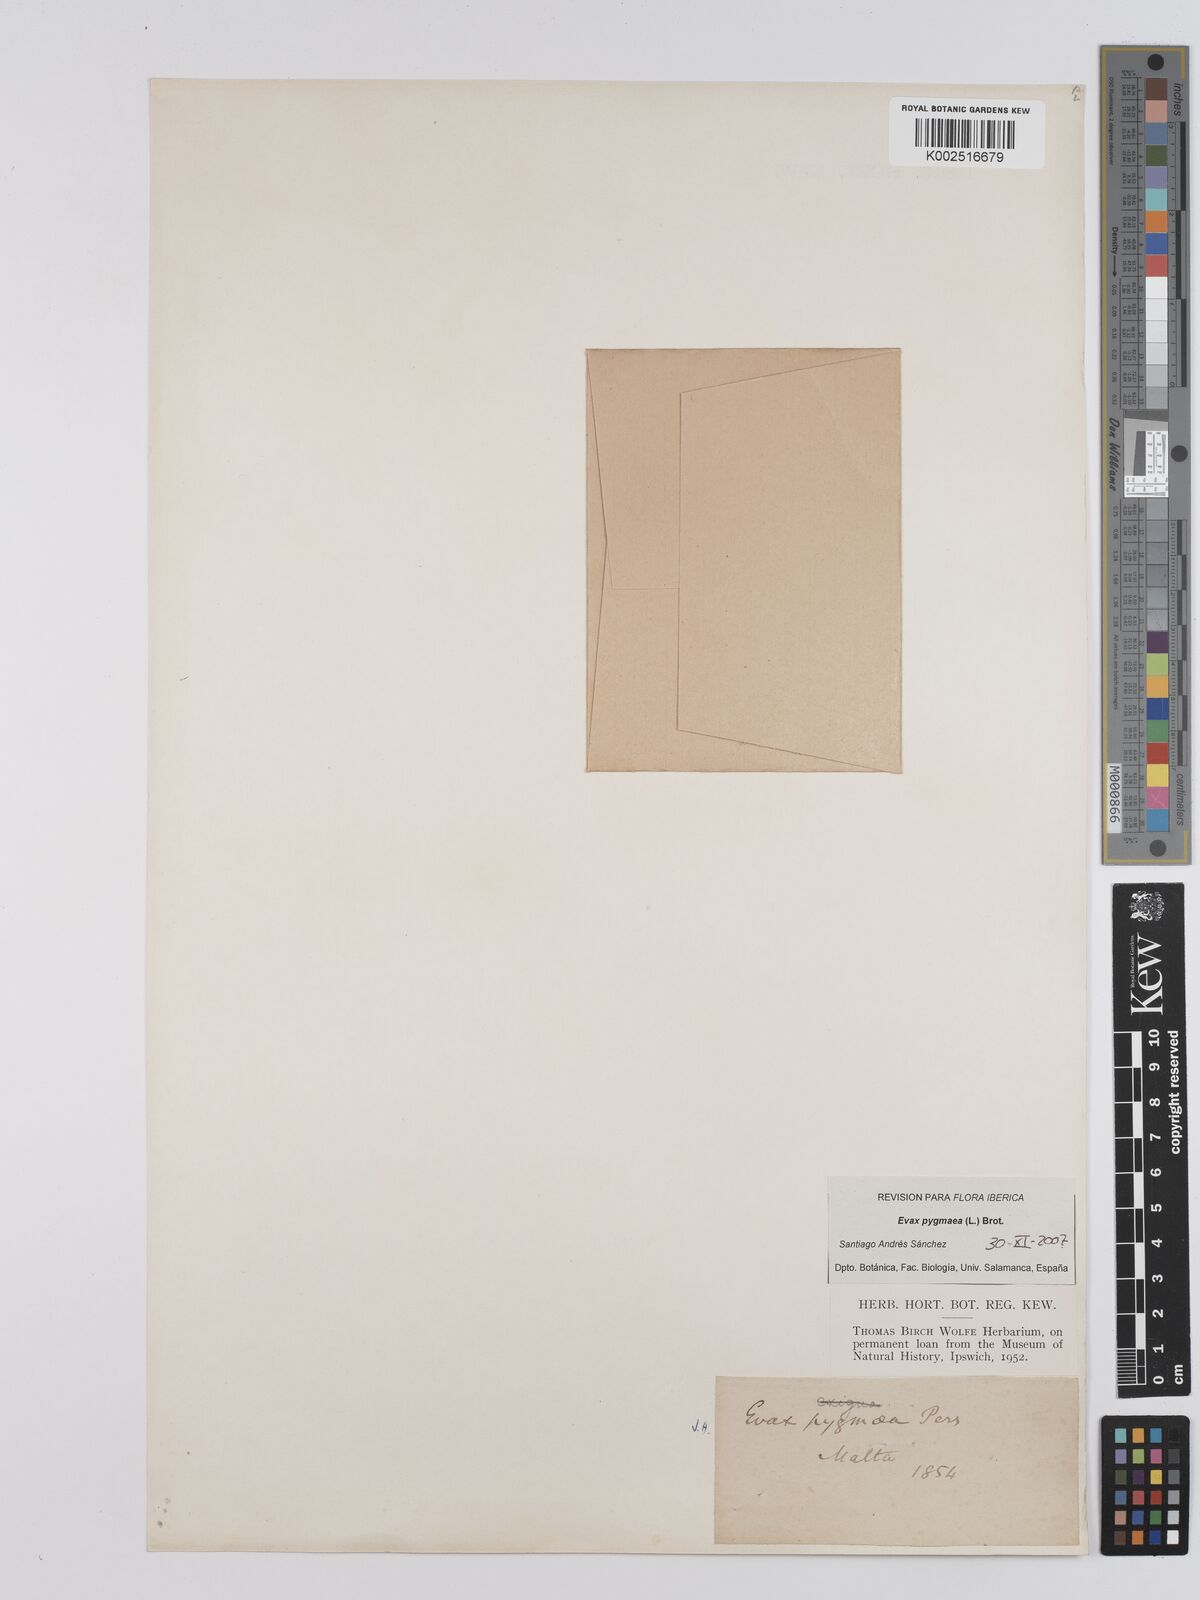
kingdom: Plantae
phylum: Tracheophyta
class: Magnoliopsida
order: Asterales
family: Asteraceae
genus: Filago
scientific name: Filago
